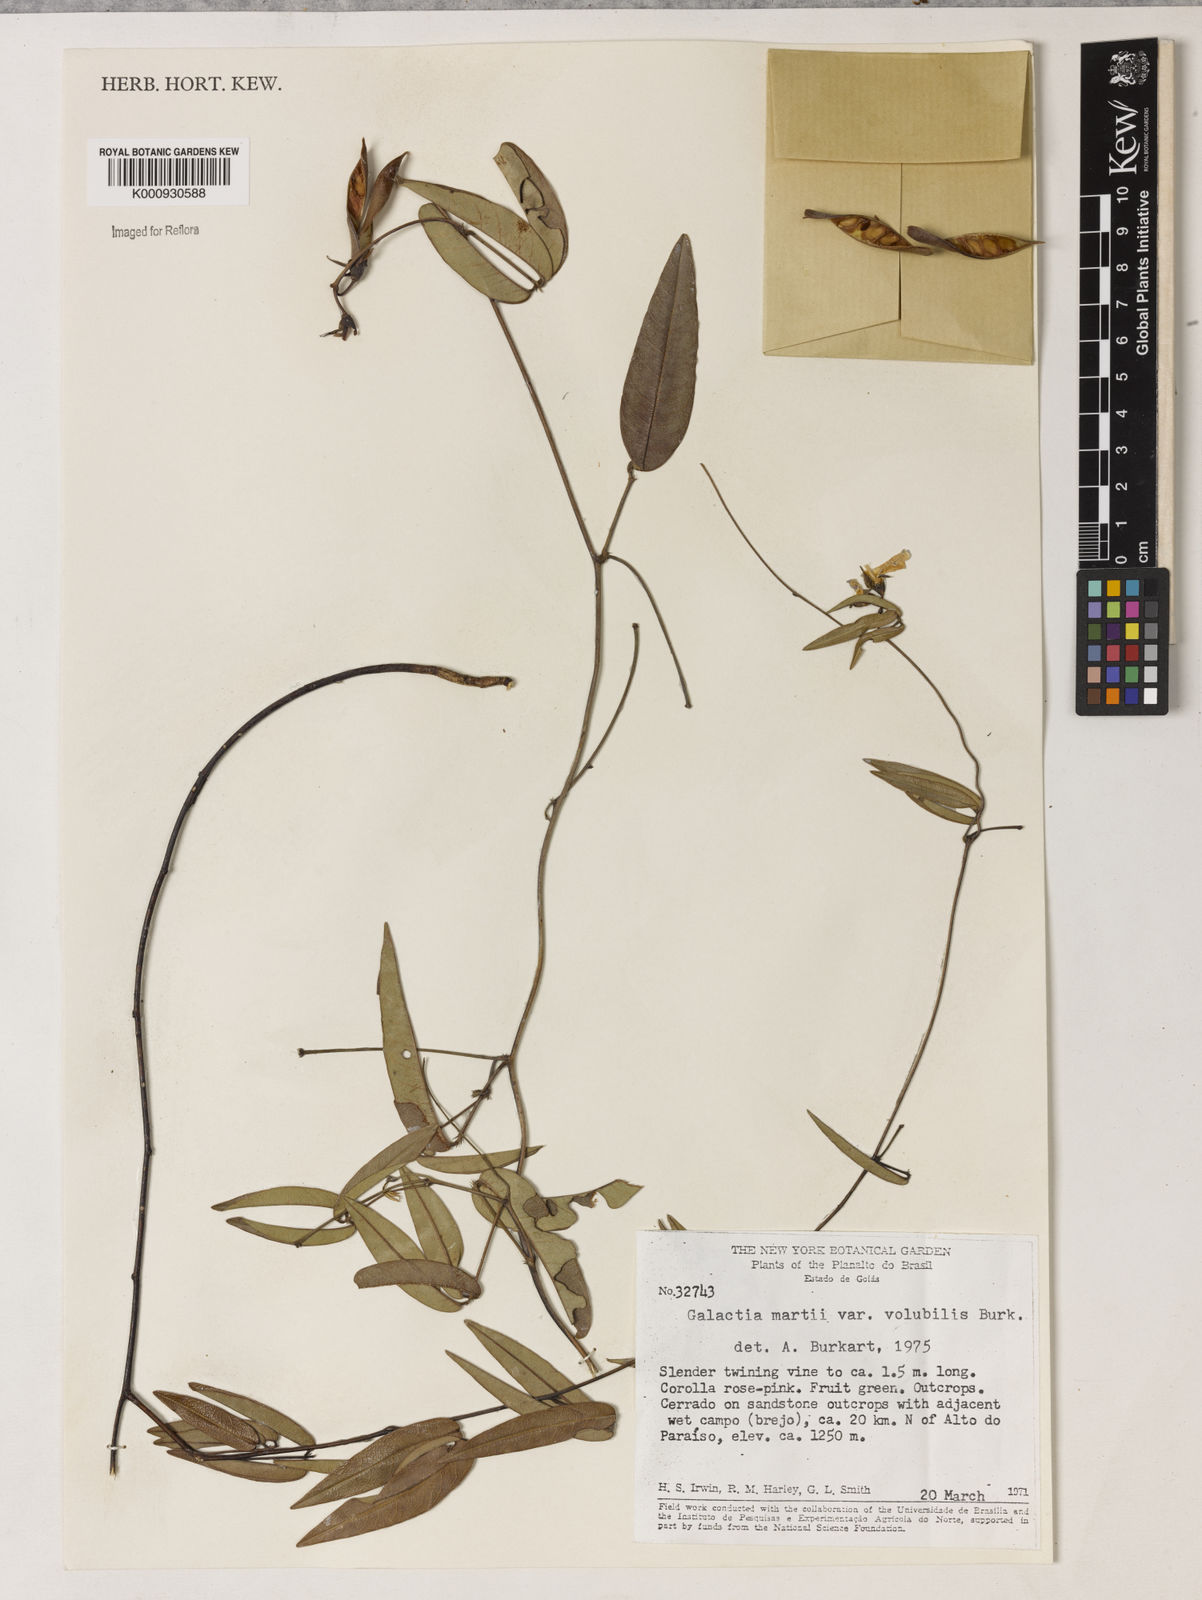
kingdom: Plantae
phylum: Tracheophyta
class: Magnoliopsida
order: Fabales
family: Fabaceae
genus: Betencourtia
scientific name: Betencourtia martii
